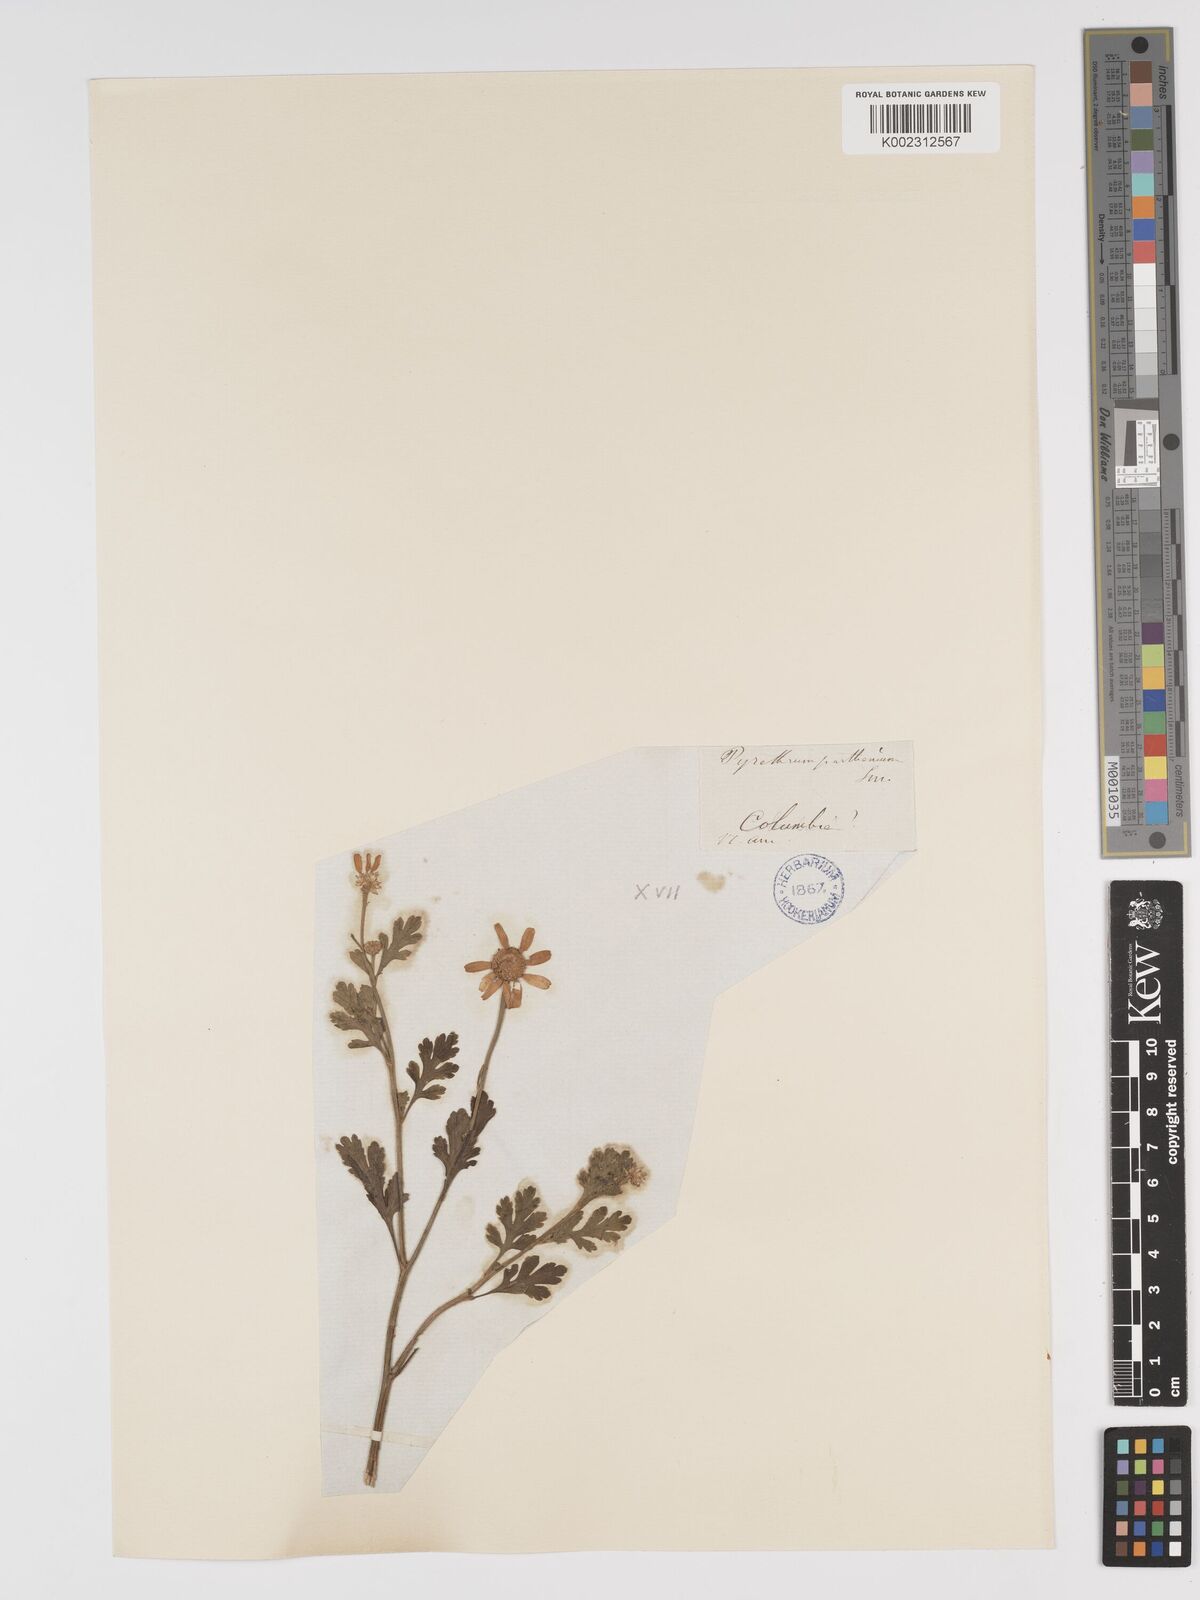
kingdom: Plantae
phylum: Tracheophyta
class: Magnoliopsida
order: Asterales
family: Asteraceae
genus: Tanacetum
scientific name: Tanacetum parthenium
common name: Feverfew
